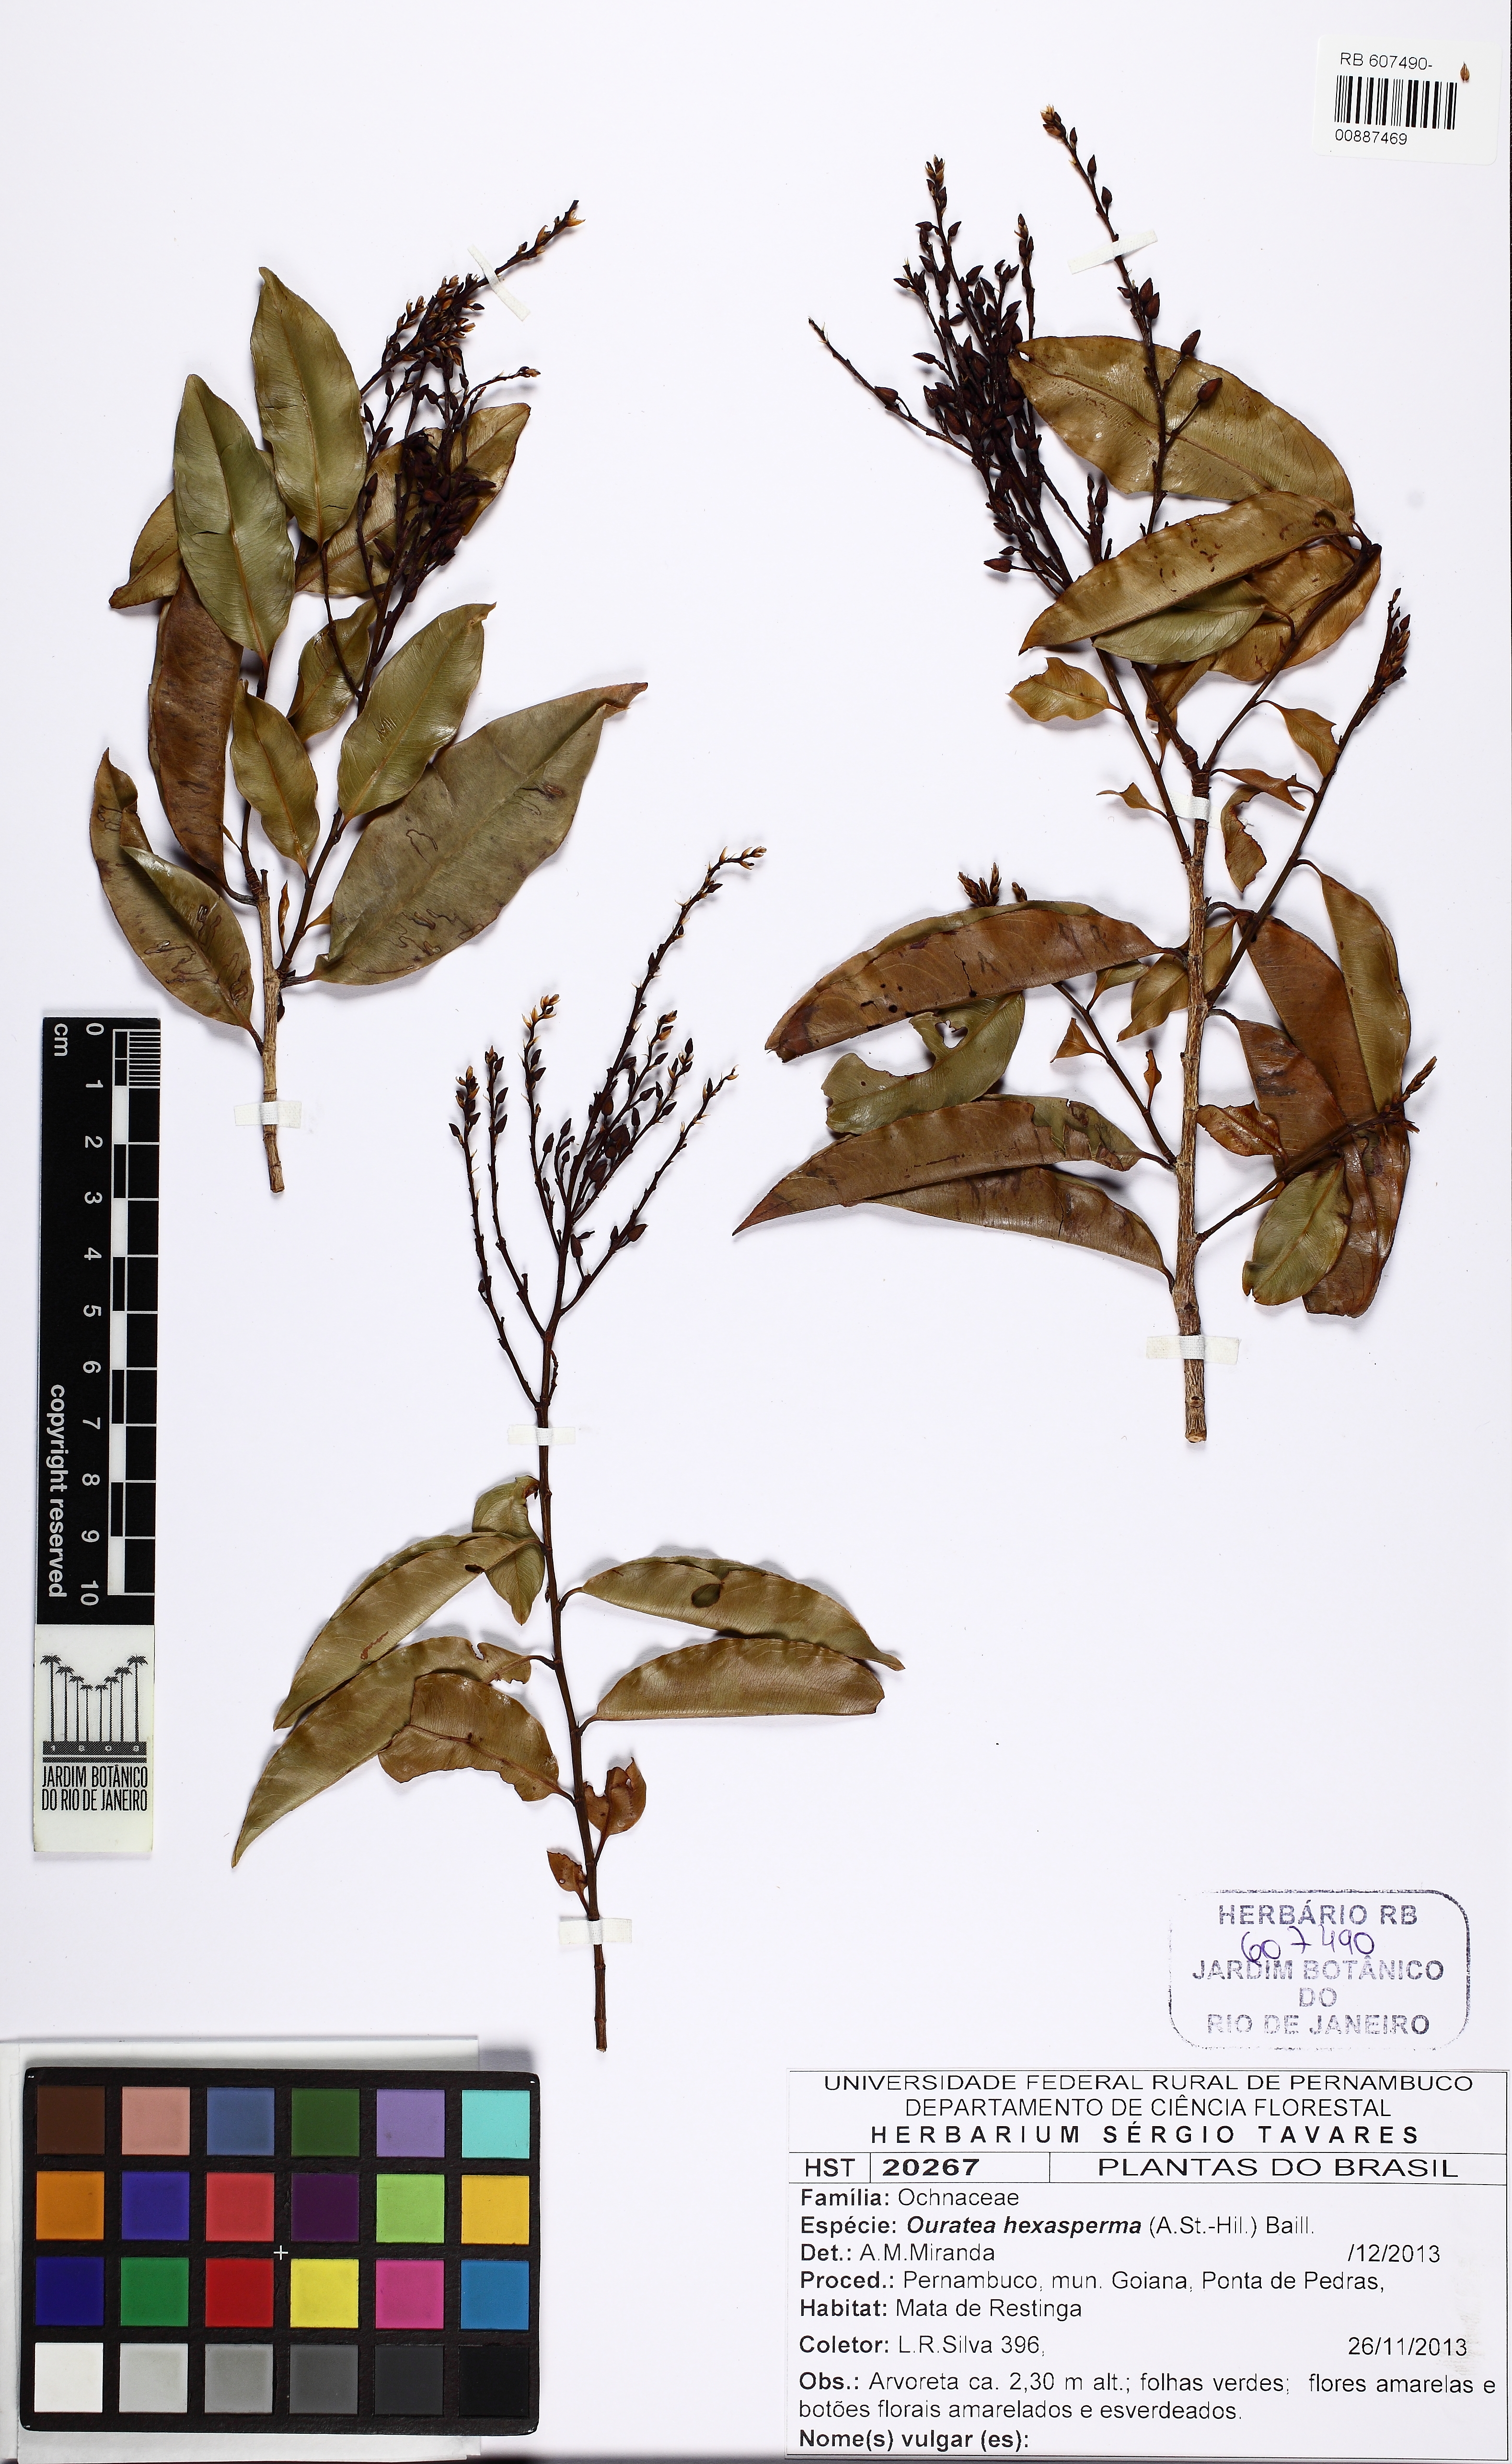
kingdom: Plantae
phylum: Tracheophyta
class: Magnoliopsida
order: Malpighiales
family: Ochnaceae
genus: Ouratea
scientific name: Ouratea hexasperma
